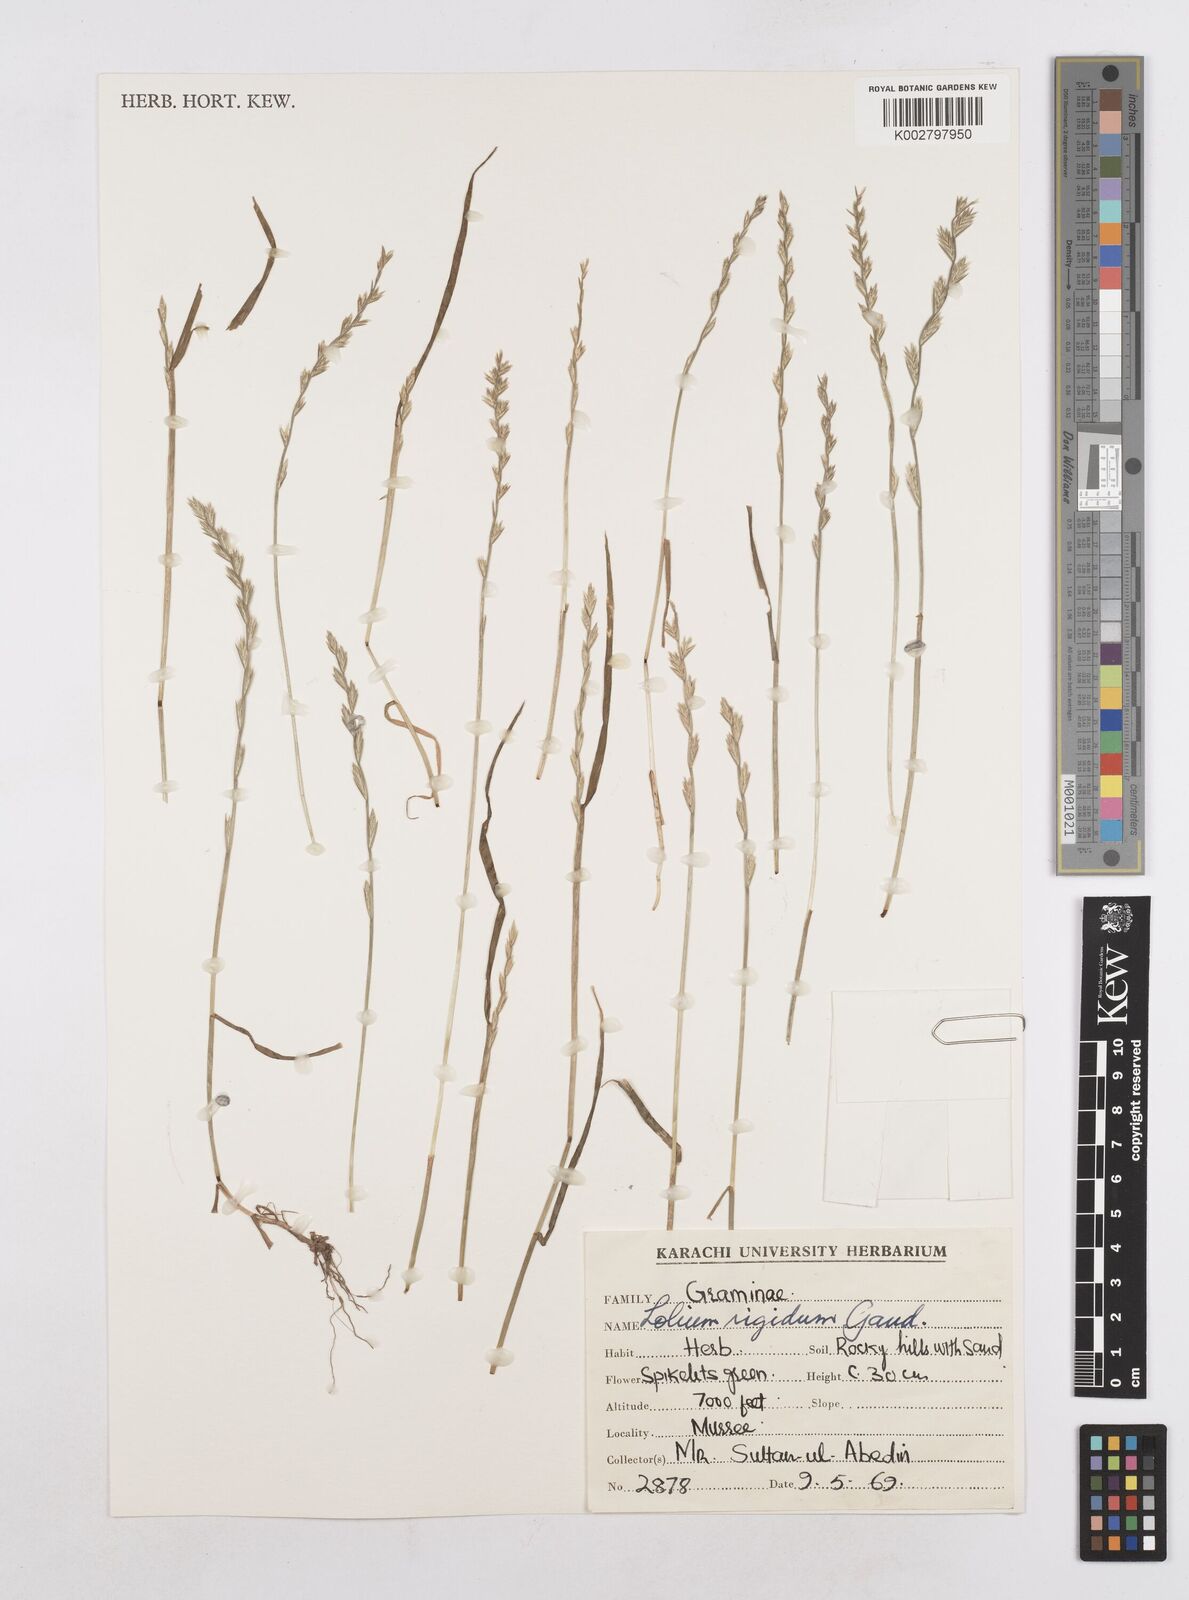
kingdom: Plantae
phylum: Tracheophyta
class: Liliopsida
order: Poales
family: Poaceae
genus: Lolium
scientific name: Lolium rigidum
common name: Wimmera ryegrass
